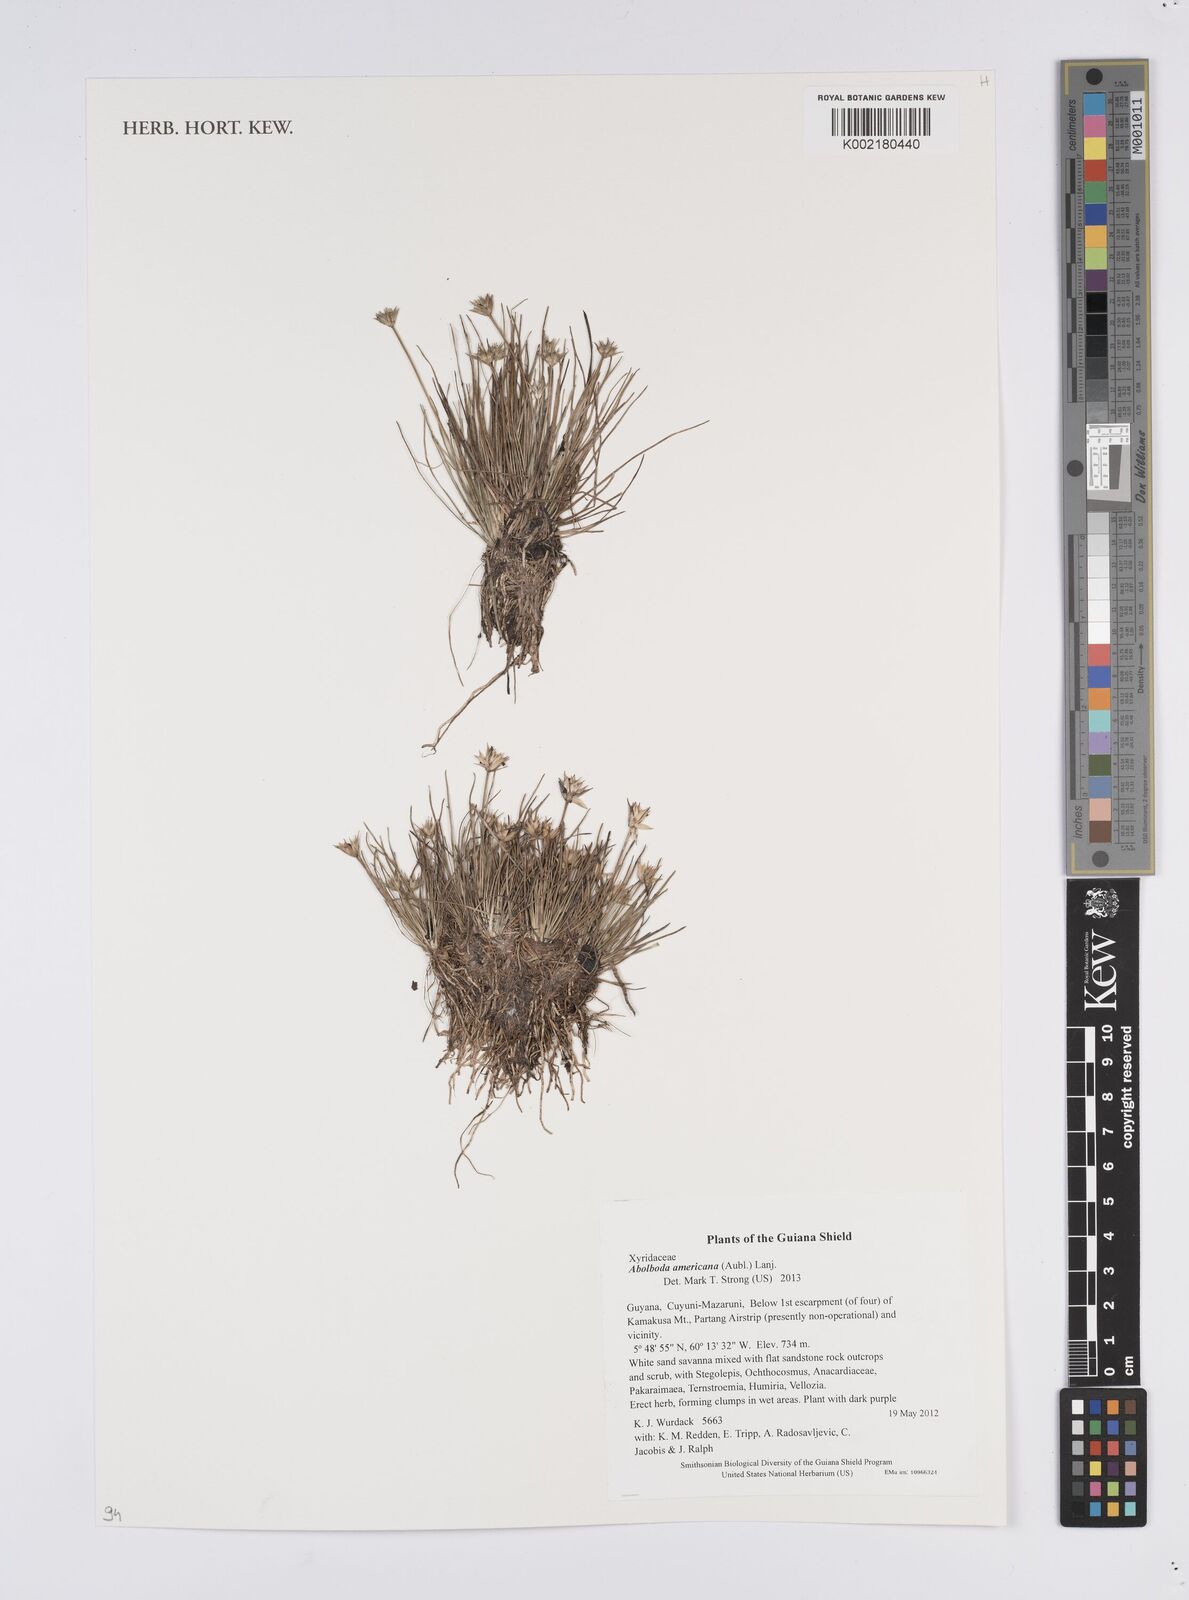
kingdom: Plantae
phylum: Tracheophyta
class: Liliopsida
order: Poales
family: Xyridaceae
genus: Abolboda
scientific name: Abolboda americana
